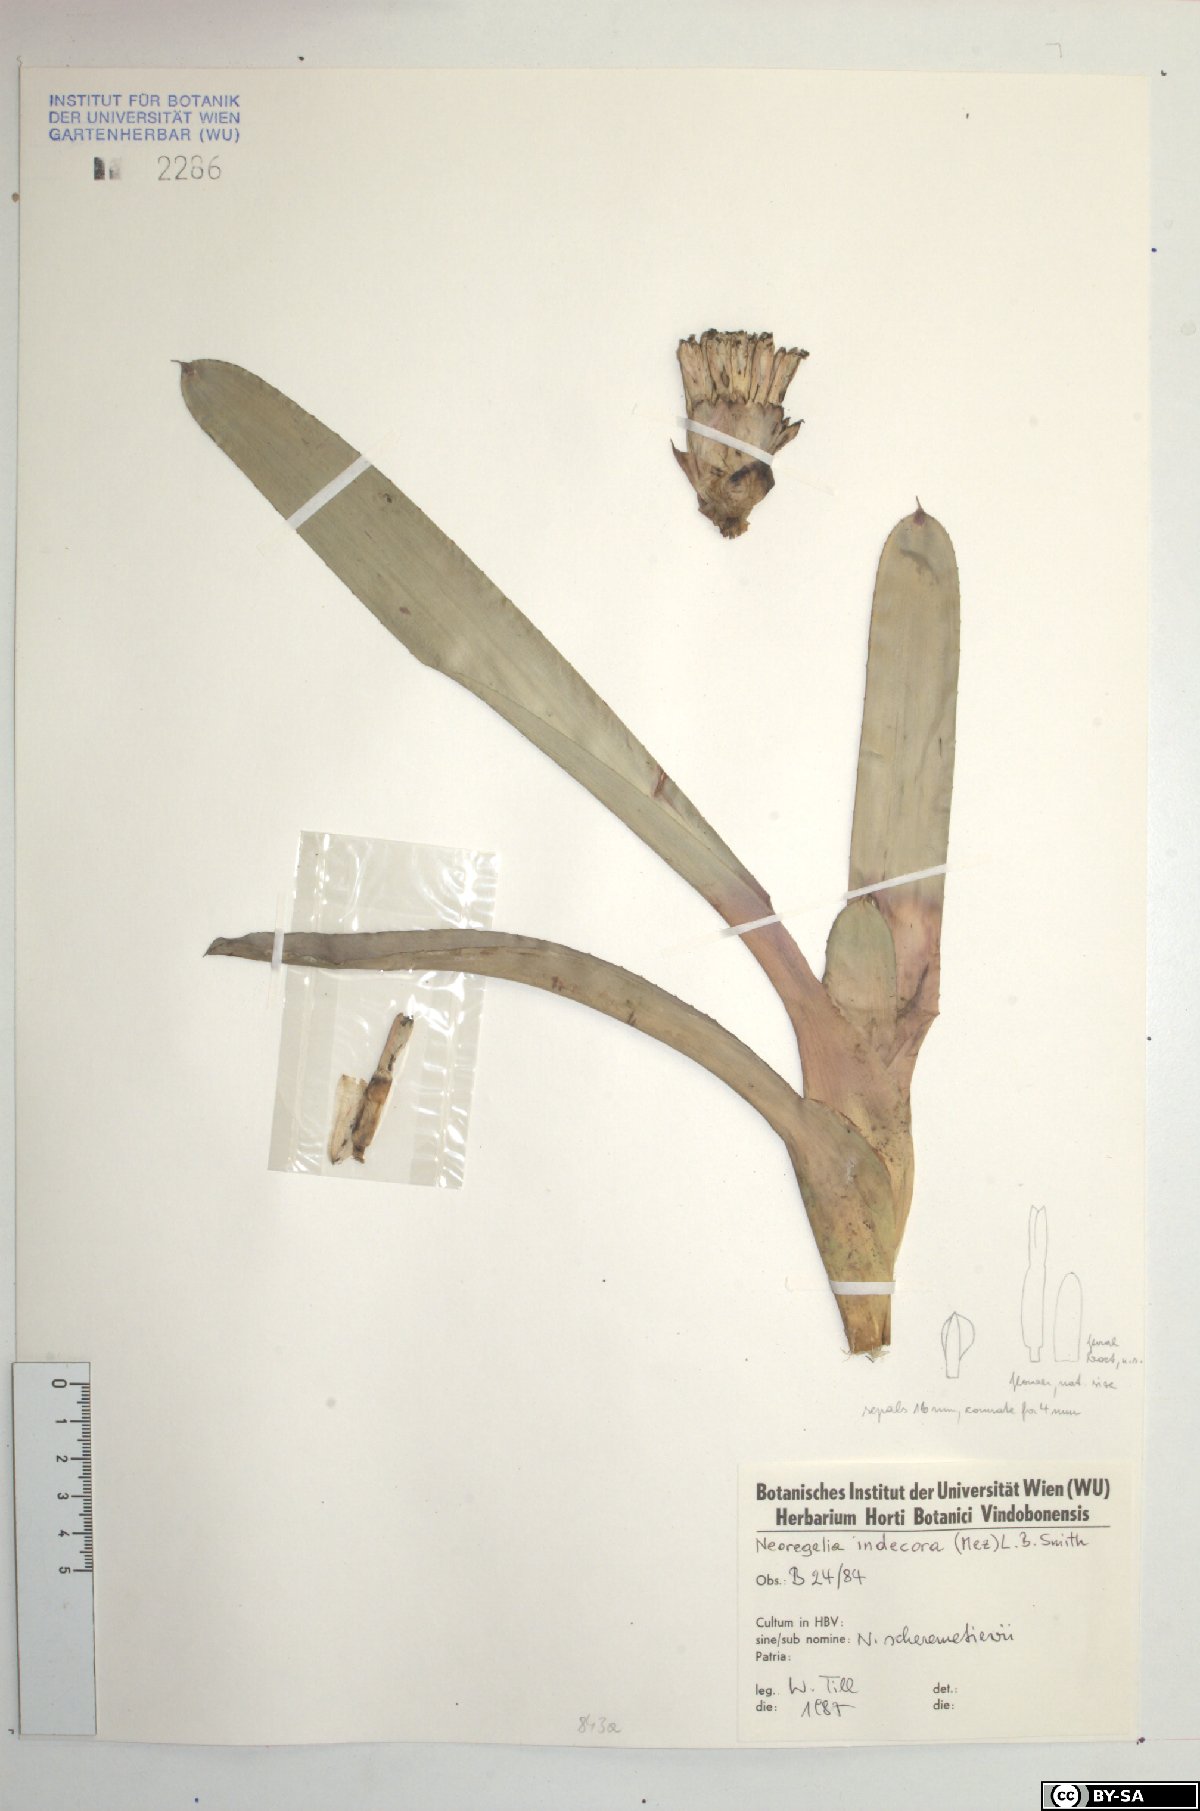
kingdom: Plantae
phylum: Tracheophyta
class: Liliopsida
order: Poales
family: Bromeliaceae
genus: Neoregelia
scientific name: Neoregelia indecora
